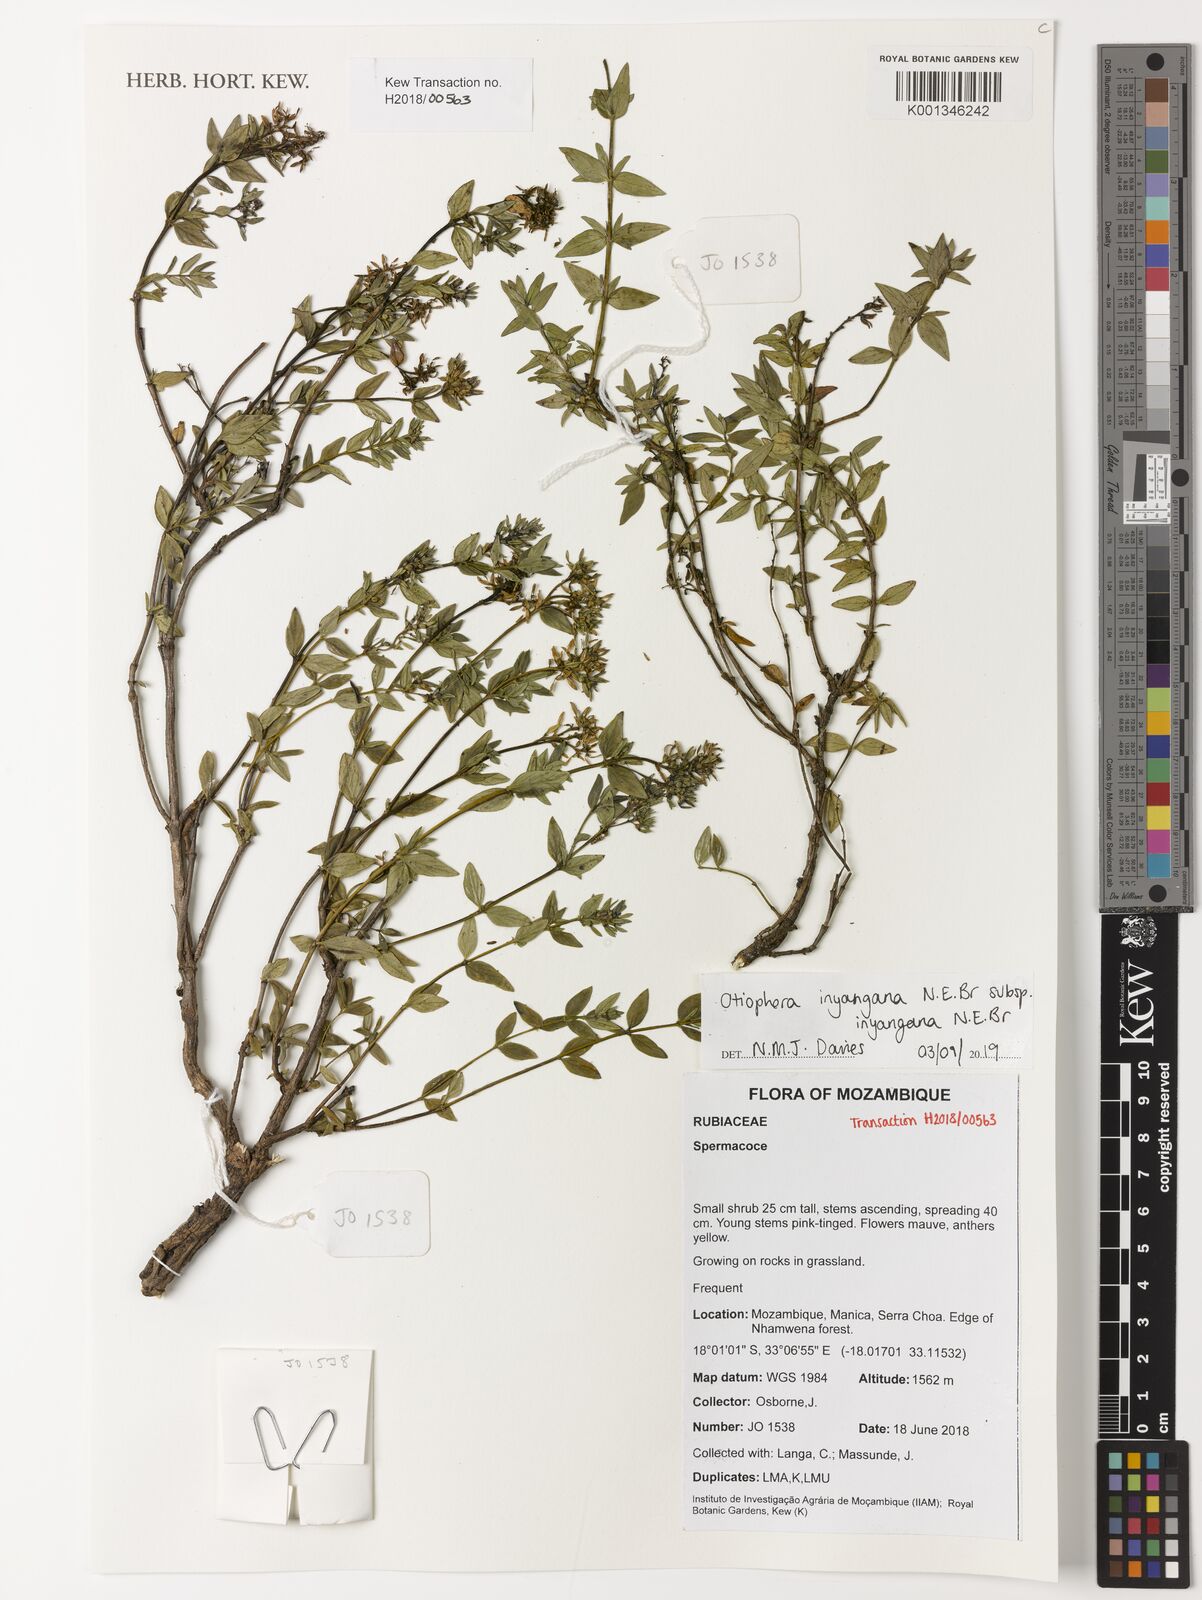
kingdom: Plantae
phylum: Tracheophyta
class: Magnoliopsida
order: Gentianales
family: Rubiaceae
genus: Otiophora
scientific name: Otiophora inyangana
